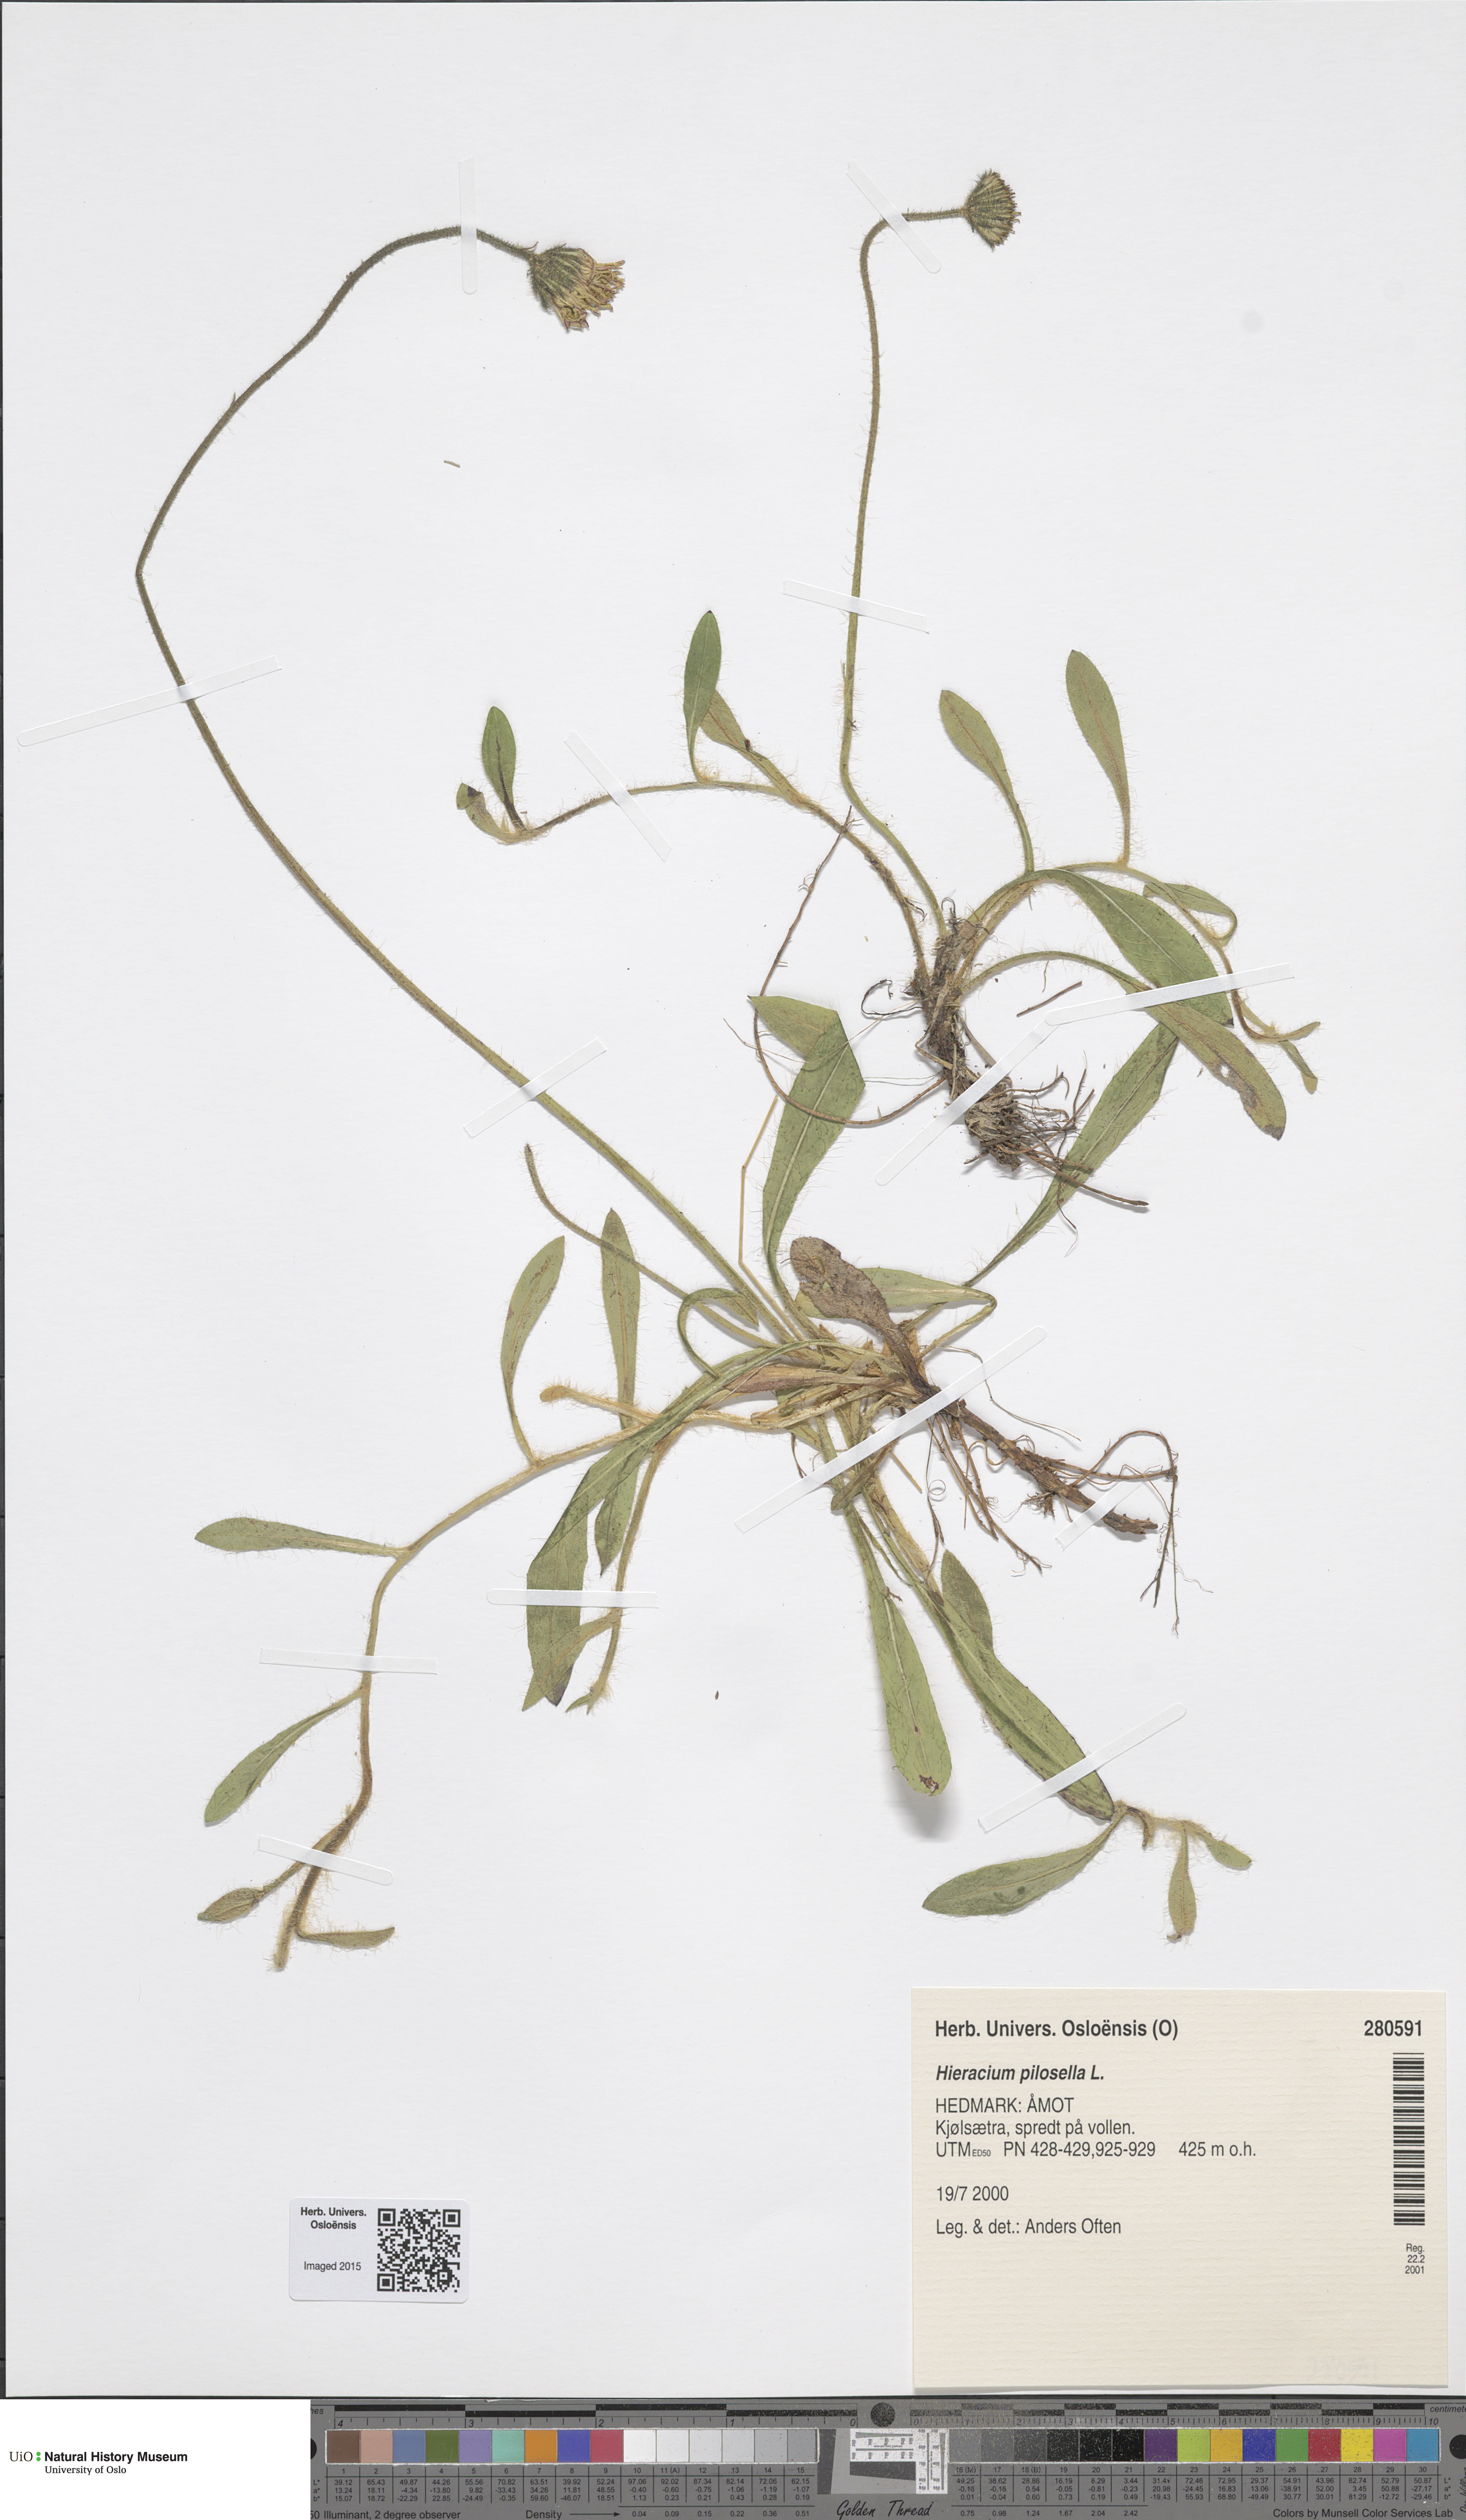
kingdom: Plantae
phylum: Tracheophyta
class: Magnoliopsida
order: Asterales
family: Asteraceae
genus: Pilosella
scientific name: Pilosella officinarum
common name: Mouse-ear hawkweed
